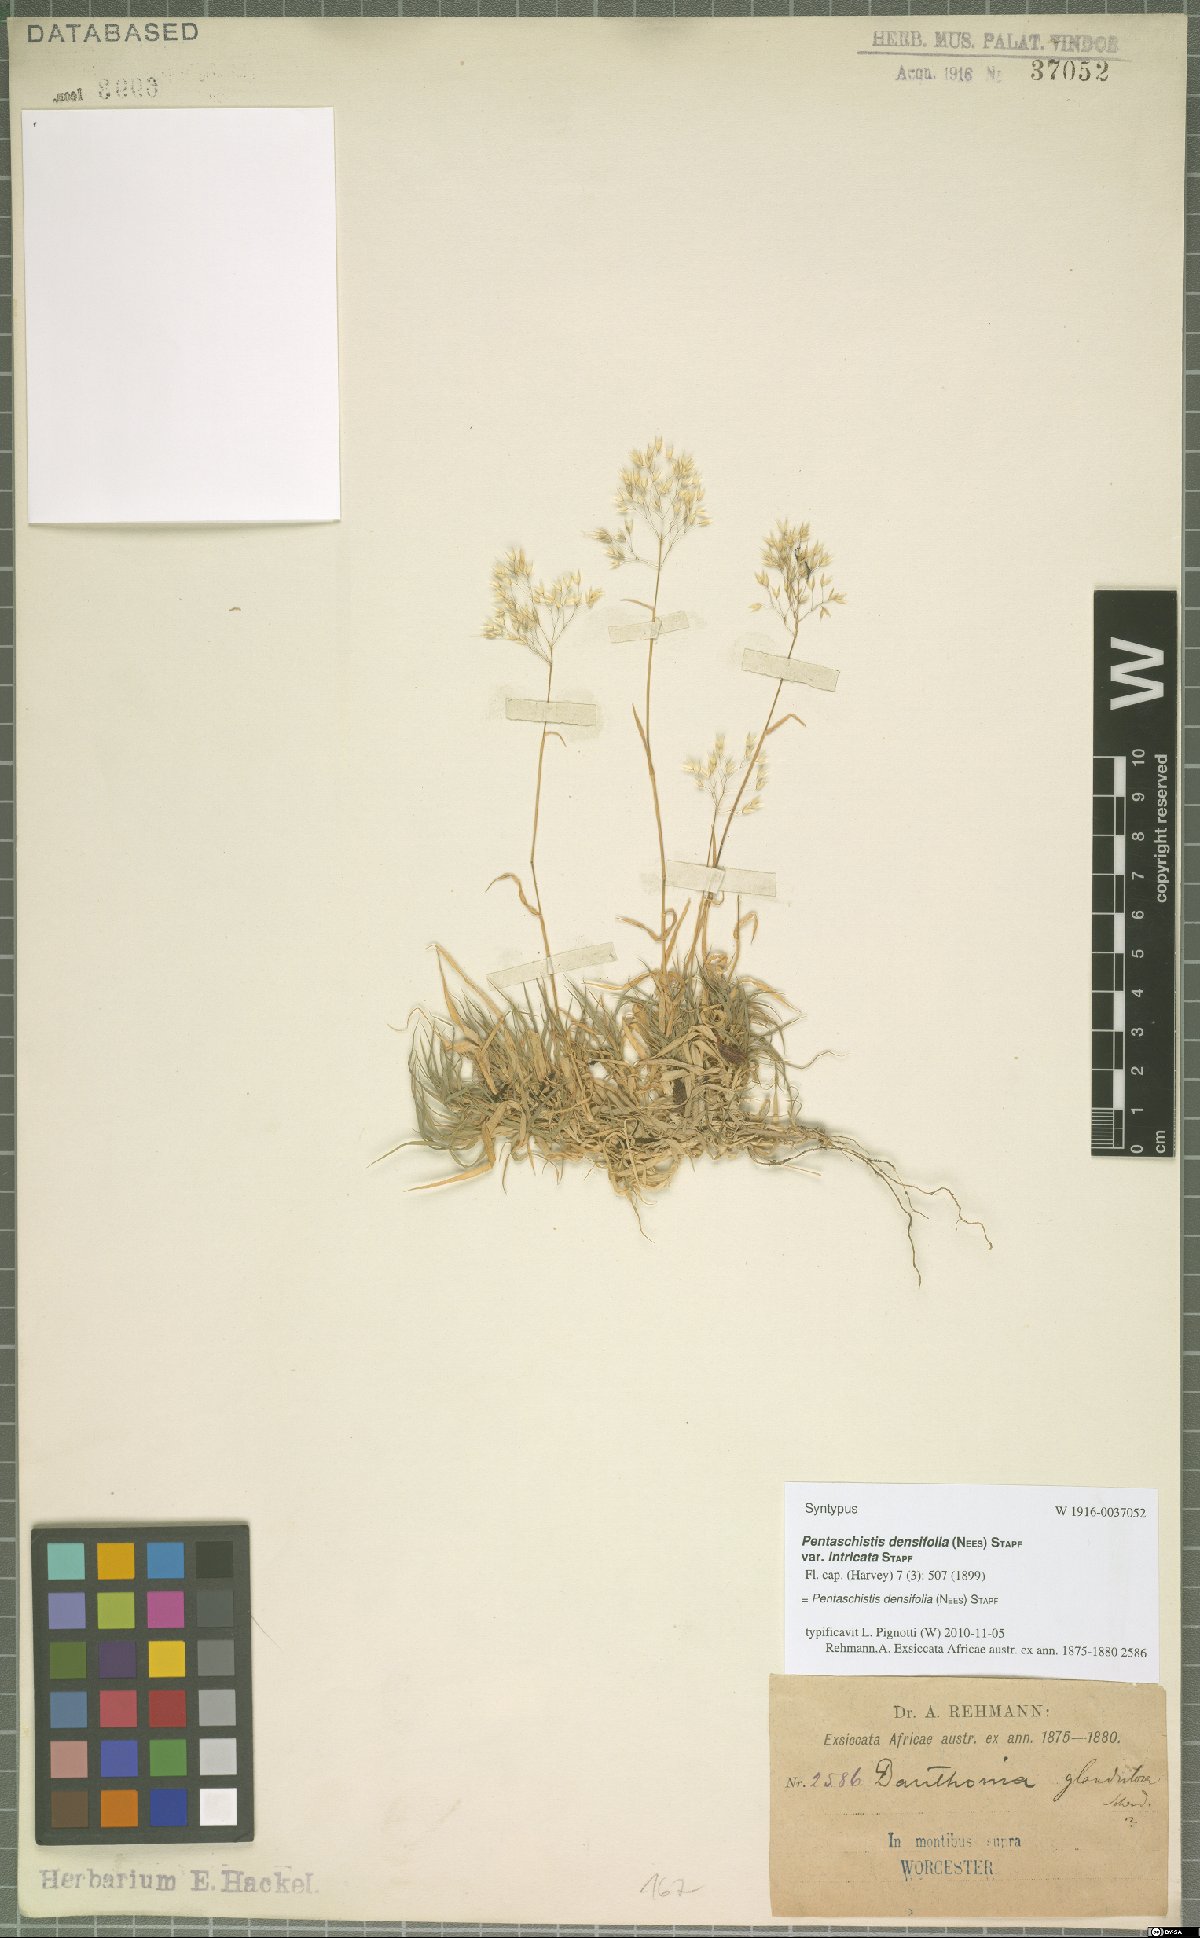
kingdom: Plantae
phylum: Tracheophyta
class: Liliopsida
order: Poales
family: Poaceae
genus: Pentameris
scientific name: Pentameris densifolia
